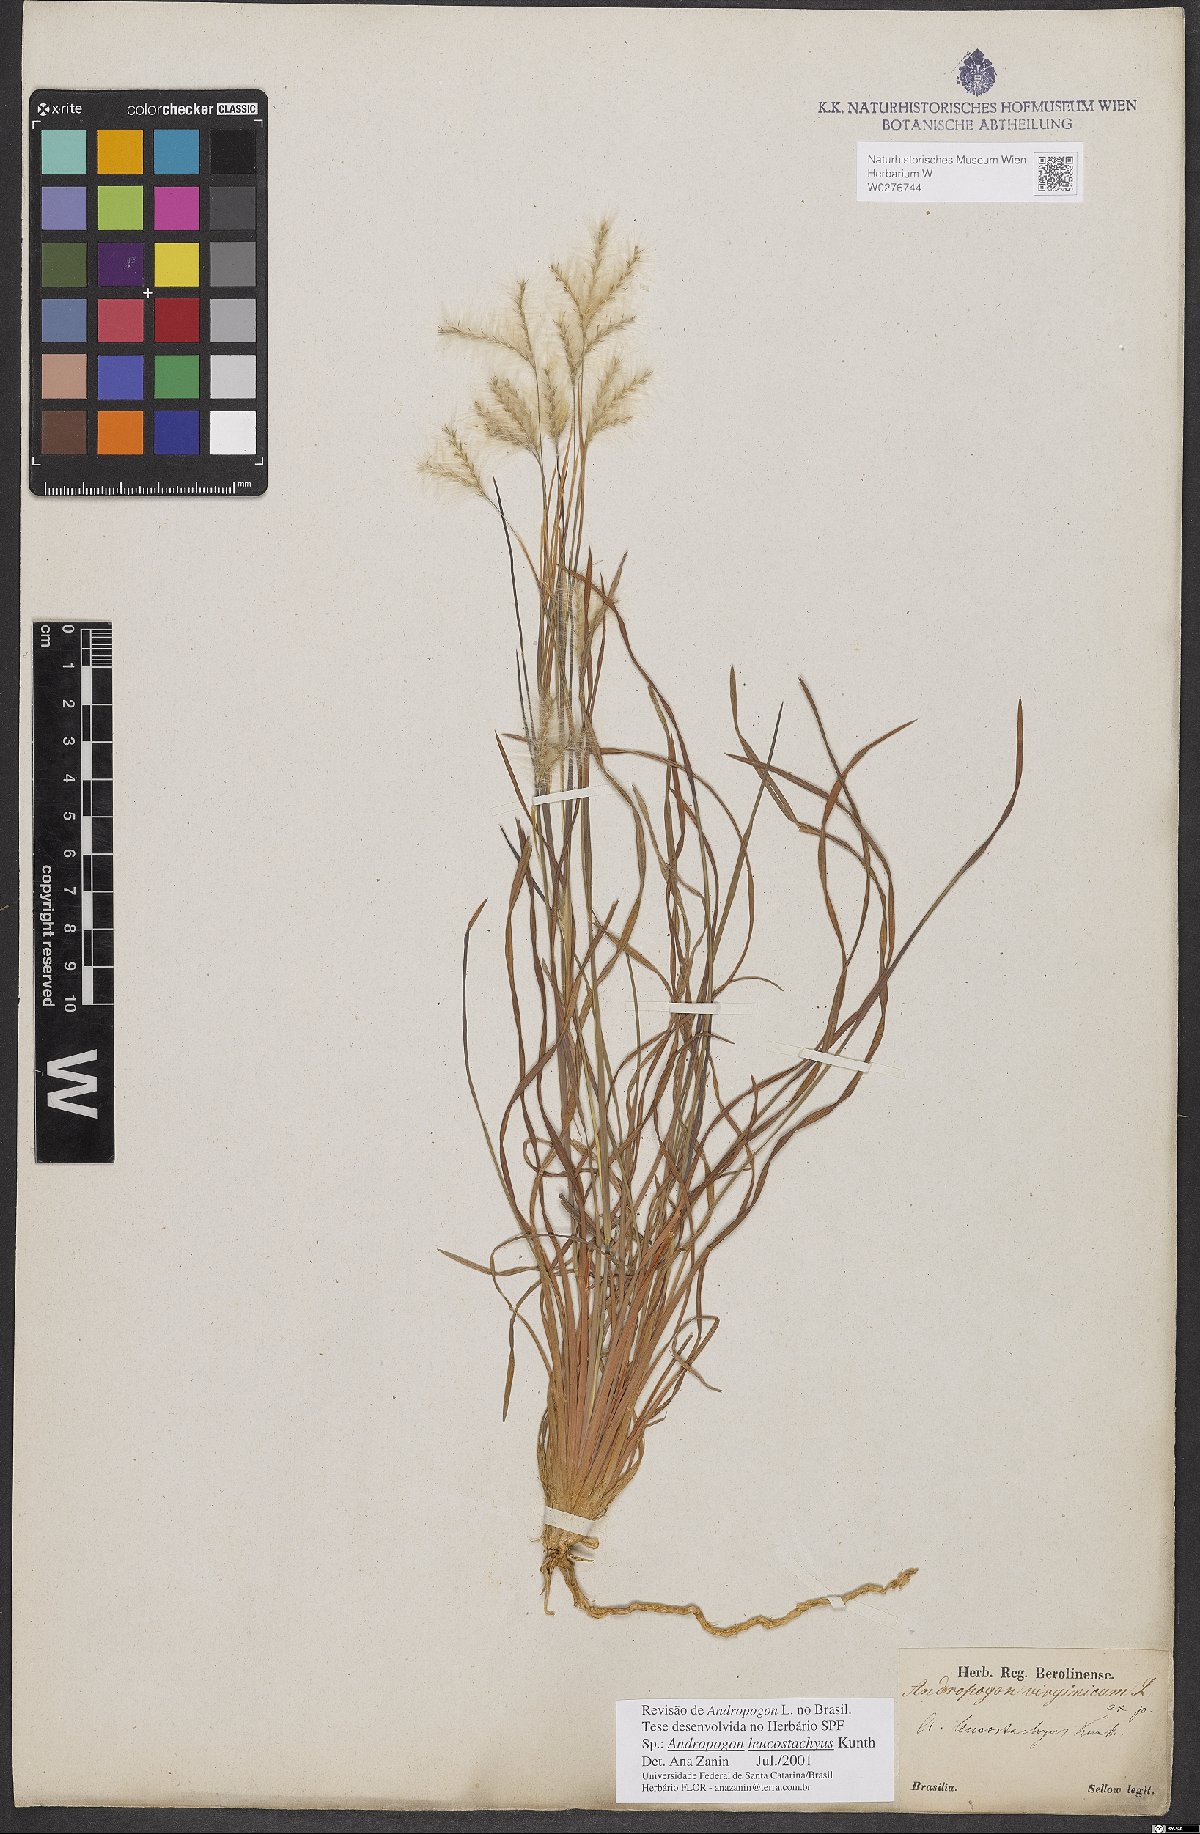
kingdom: Plantae
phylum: Tracheophyta
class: Liliopsida
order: Poales
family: Poaceae
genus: Andropogon
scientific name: Andropogon leucostachyus
